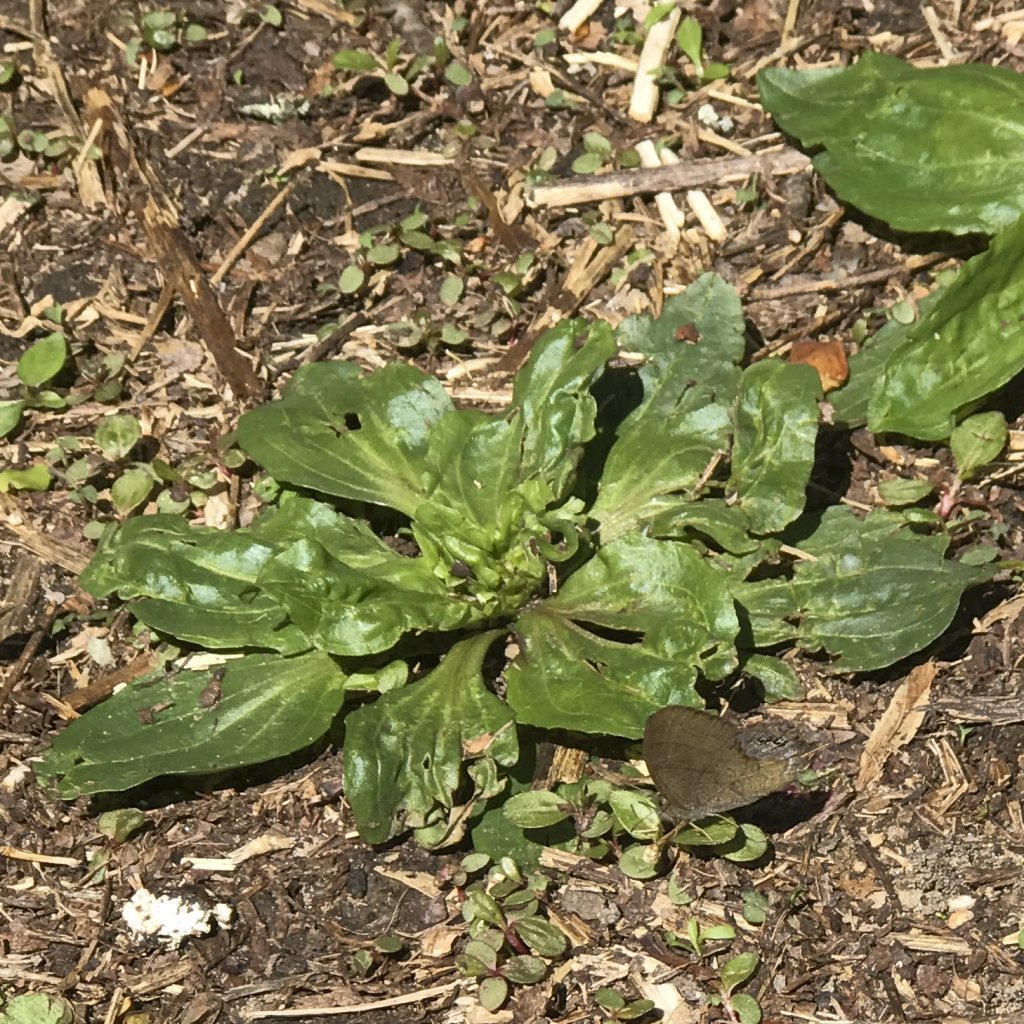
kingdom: Animalia
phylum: Arthropoda
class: Insecta
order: Lepidoptera
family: Nymphalidae
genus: Euptychia
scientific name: Euptychia cornelius
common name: Gemmed Satyr
